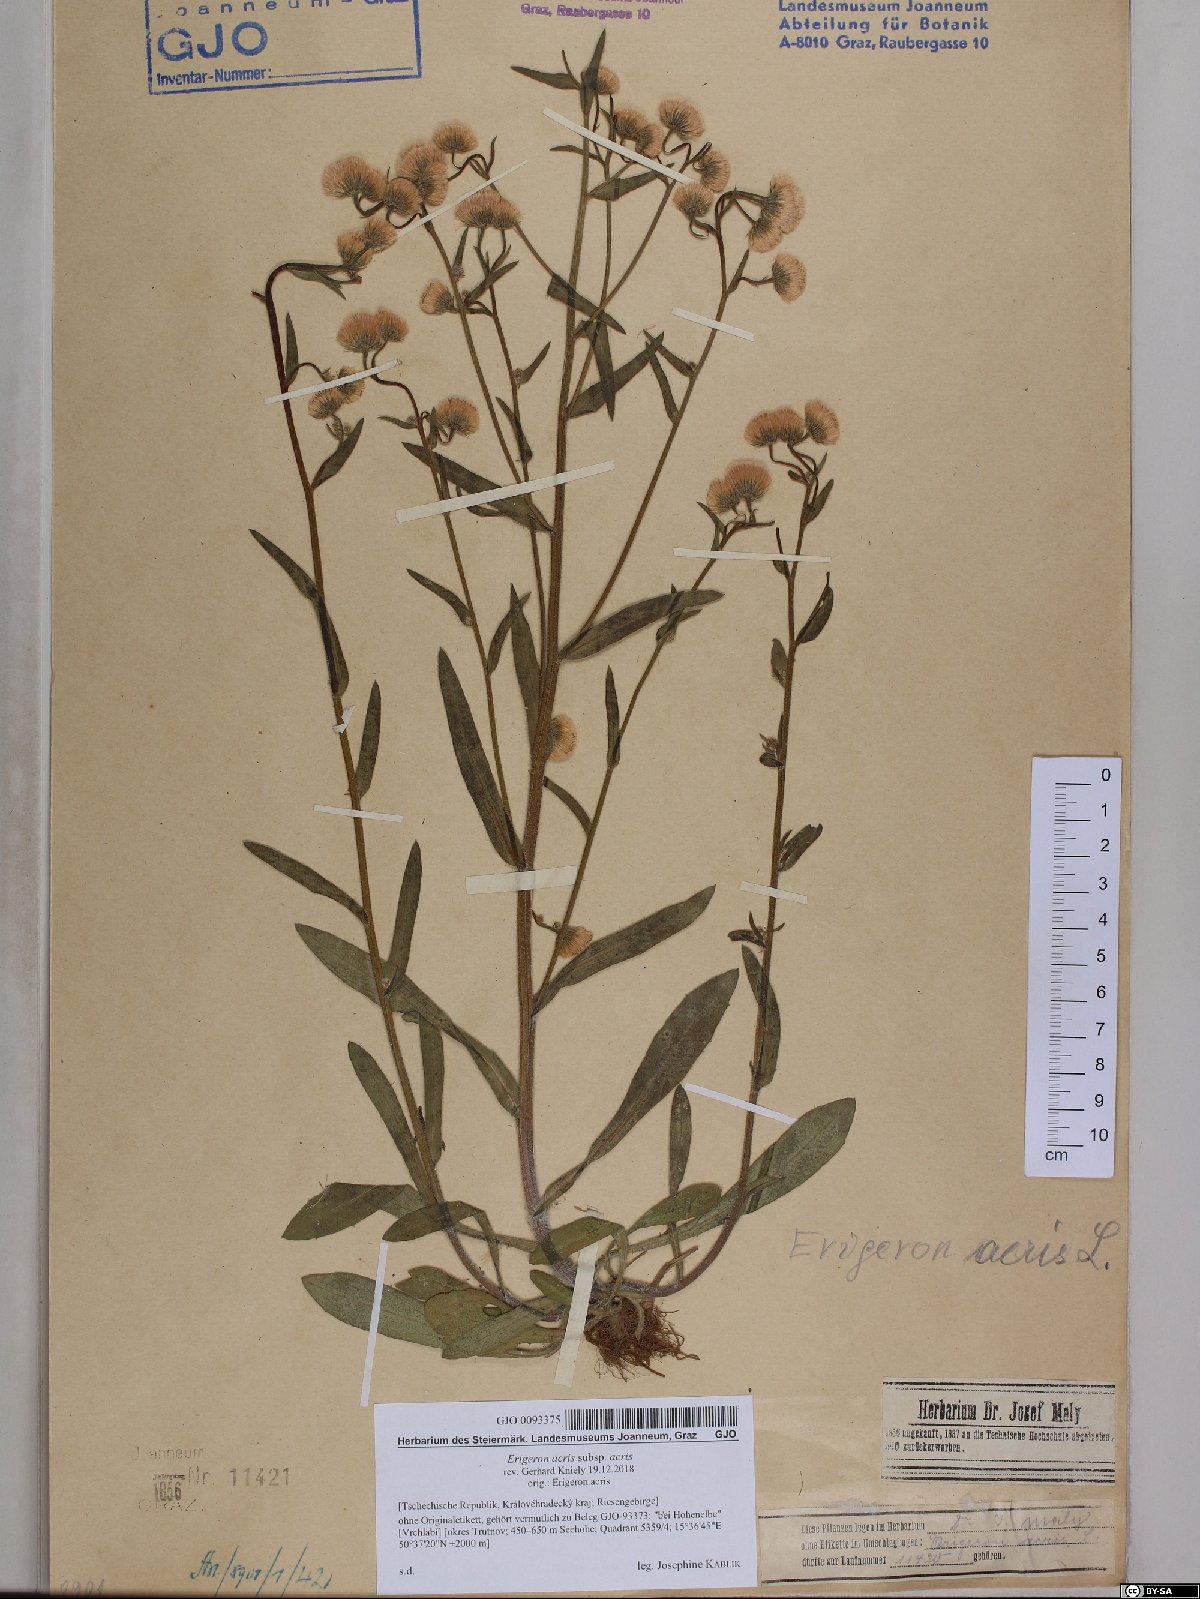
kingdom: Plantae
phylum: Tracheophyta
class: Magnoliopsida
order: Asterales
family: Asteraceae
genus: Erigeron
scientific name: Erigeron acris
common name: Blue fleabane
